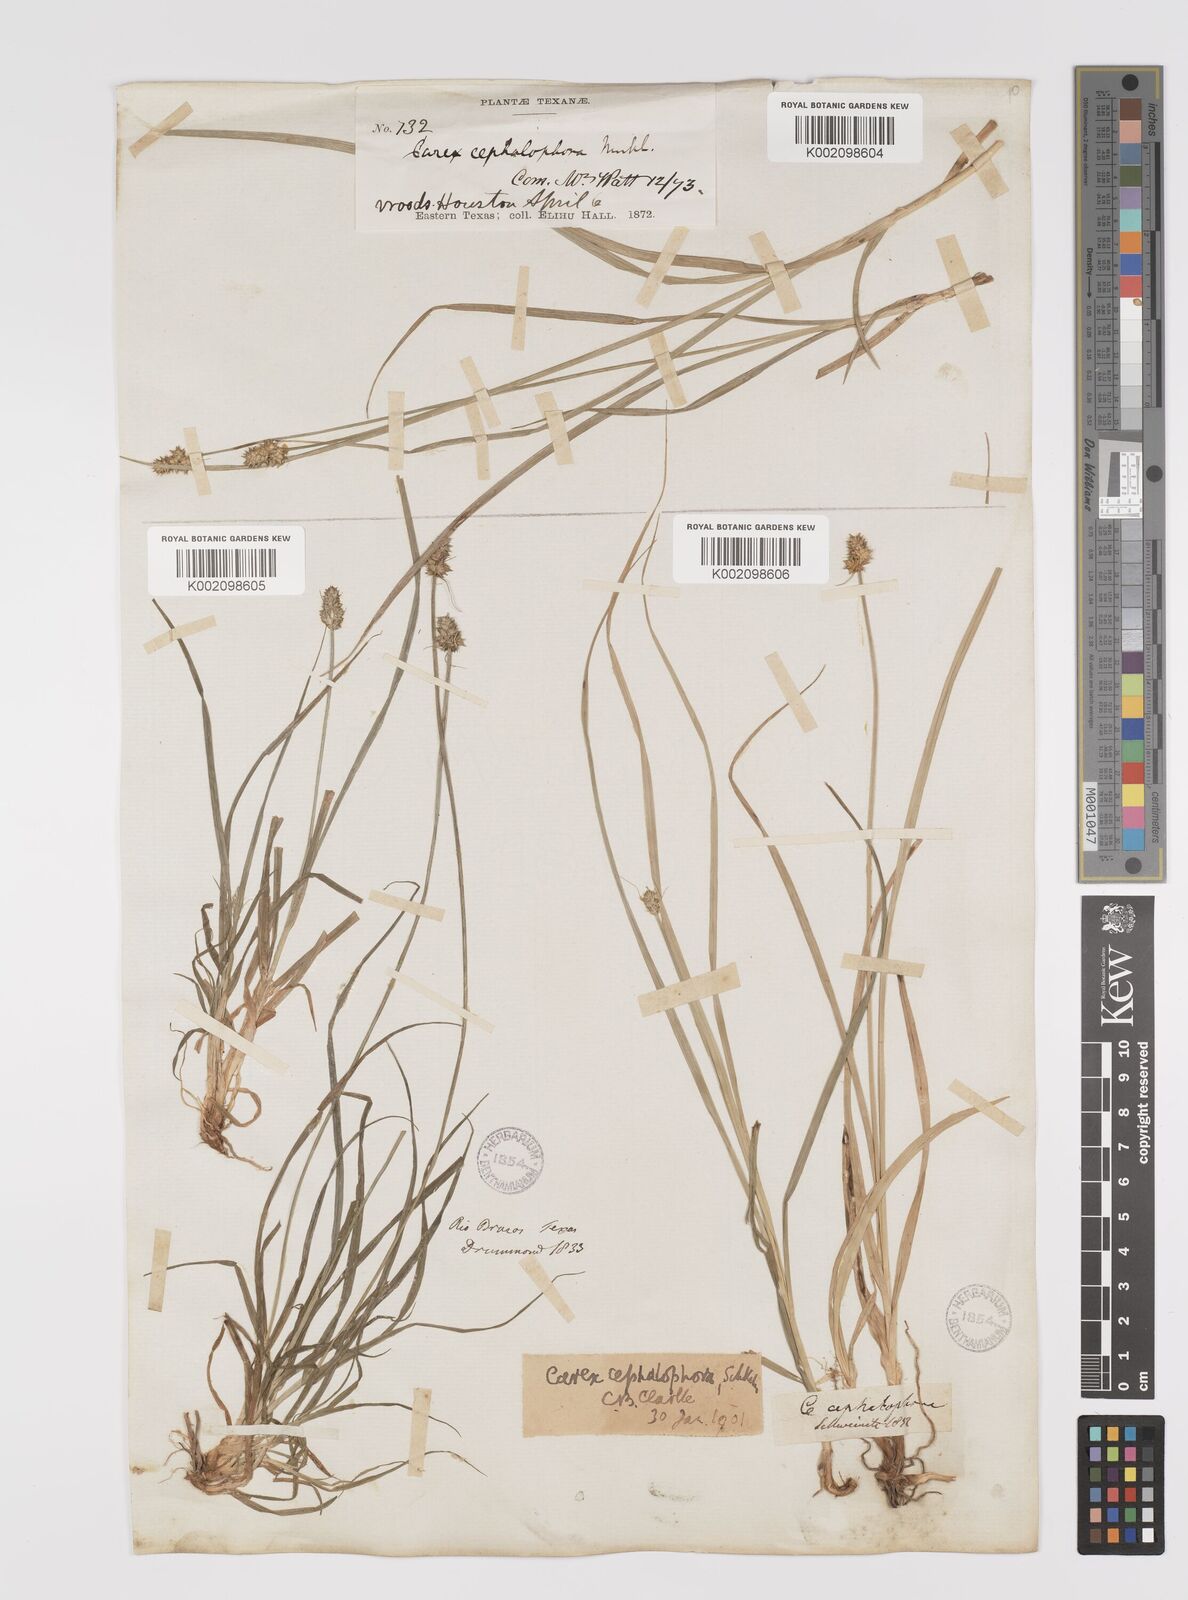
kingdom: Plantae
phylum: Tracheophyta
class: Liliopsida
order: Poales
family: Cyperaceae
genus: Carex
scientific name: Carex cephalophora
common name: Oval-headed sedge
